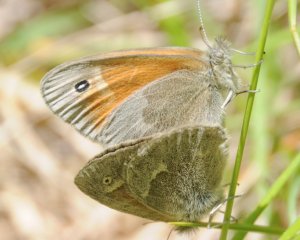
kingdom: Animalia
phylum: Arthropoda
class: Insecta
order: Lepidoptera
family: Nymphalidae
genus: Coenonympha
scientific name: Coenonympha tullia
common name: Large Heath
